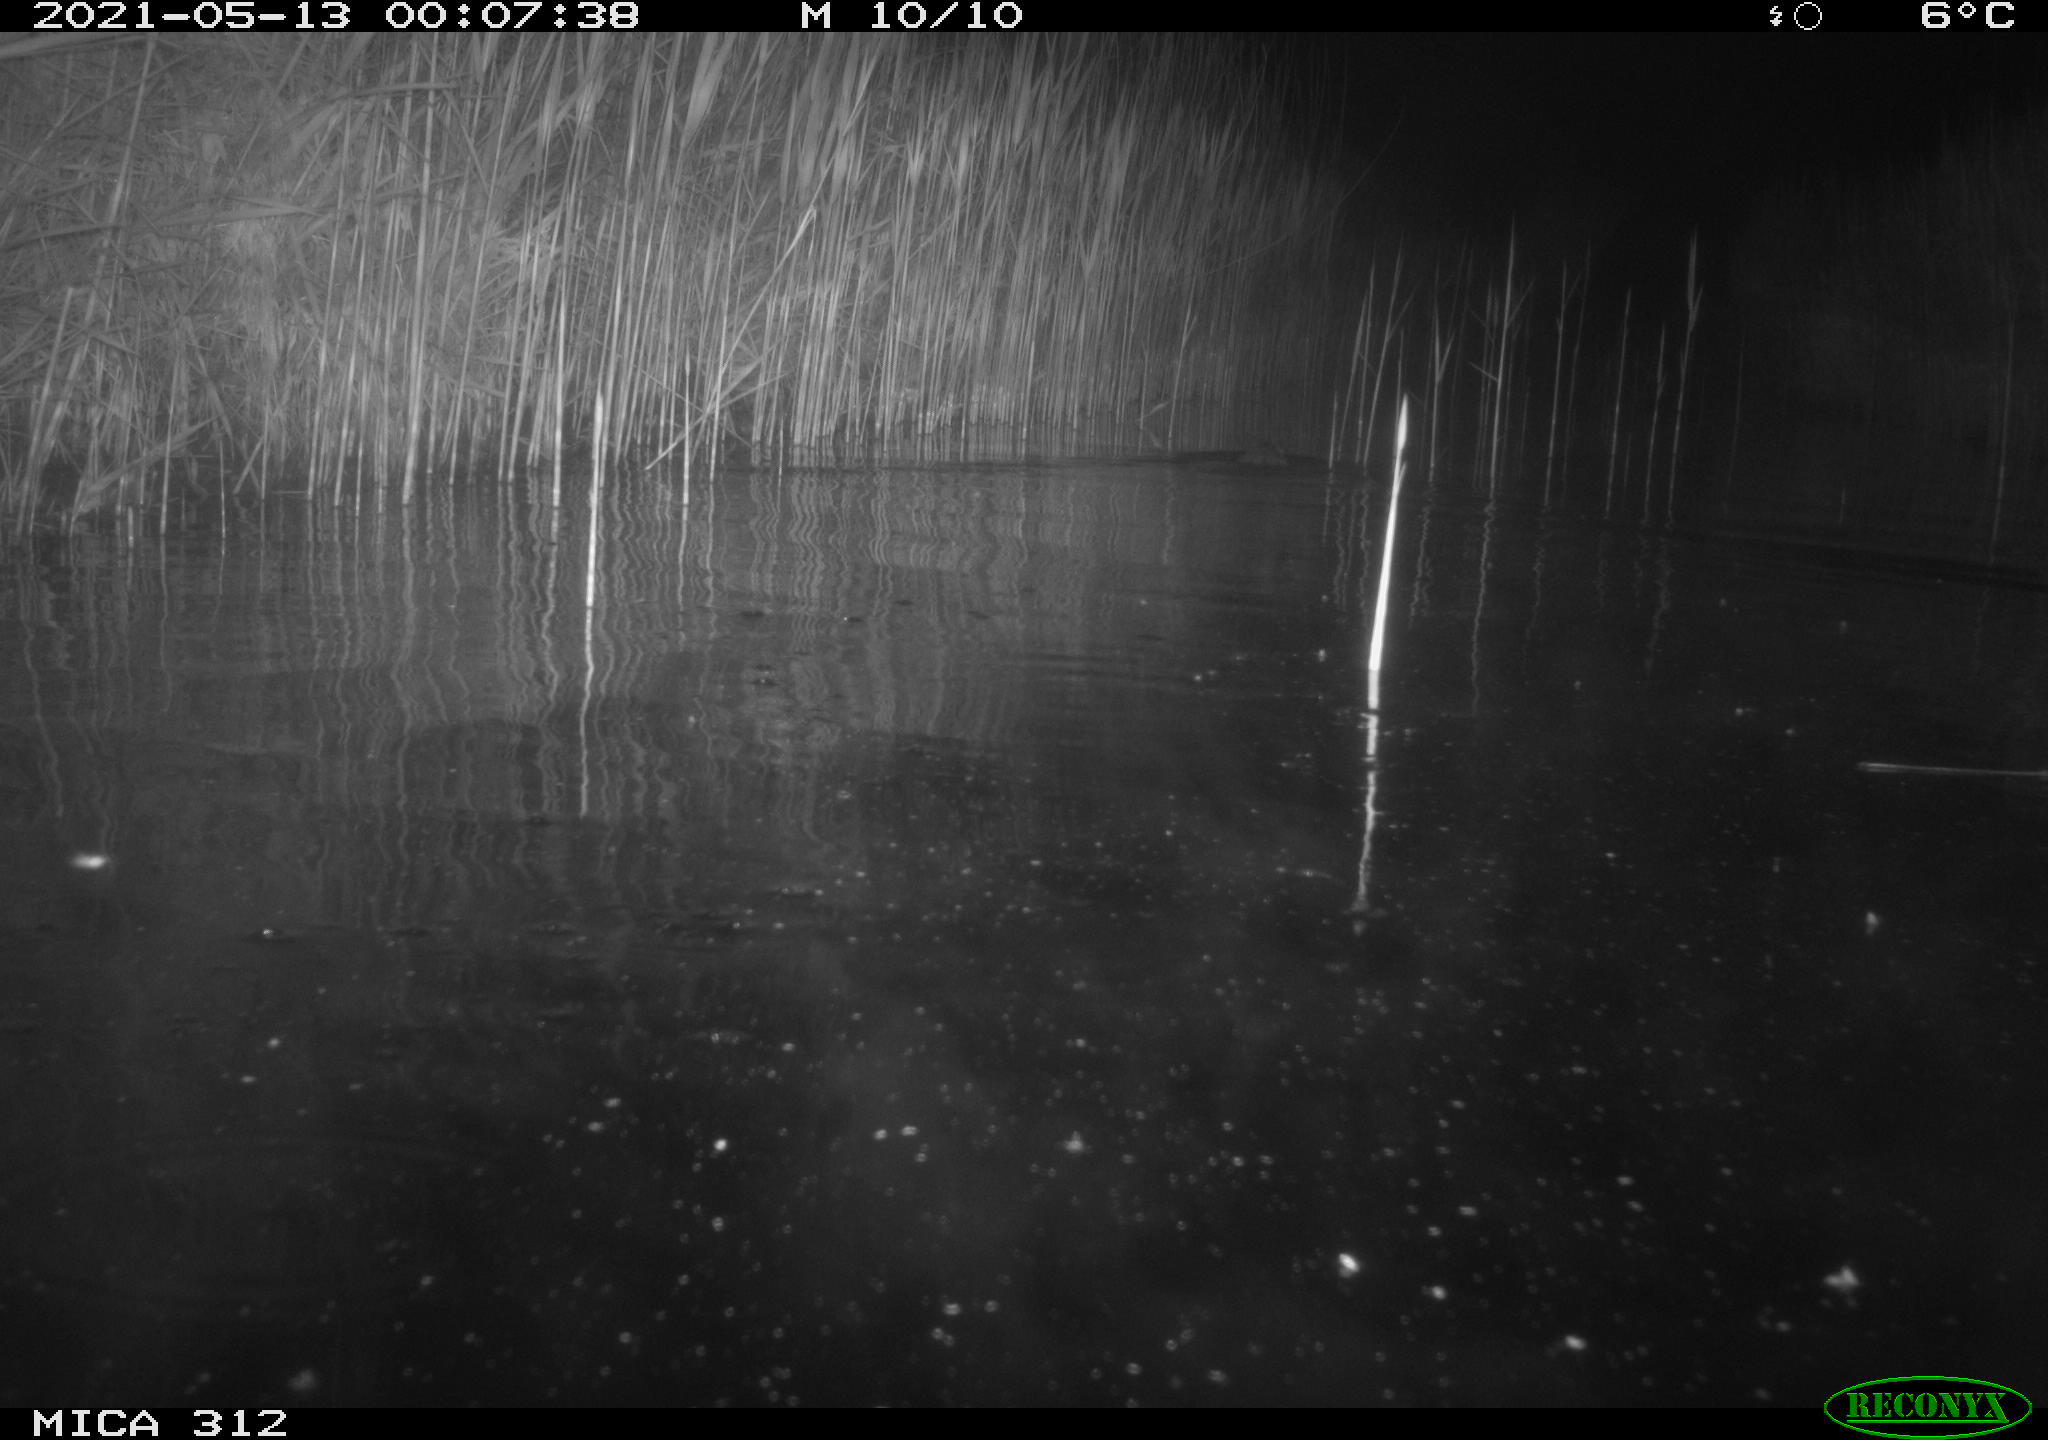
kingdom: Animalia
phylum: Chordata
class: Mammalia
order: Rodentia
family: Cricetidae
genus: Ondatra
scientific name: Ondatra zibethicus
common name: Muskrat
